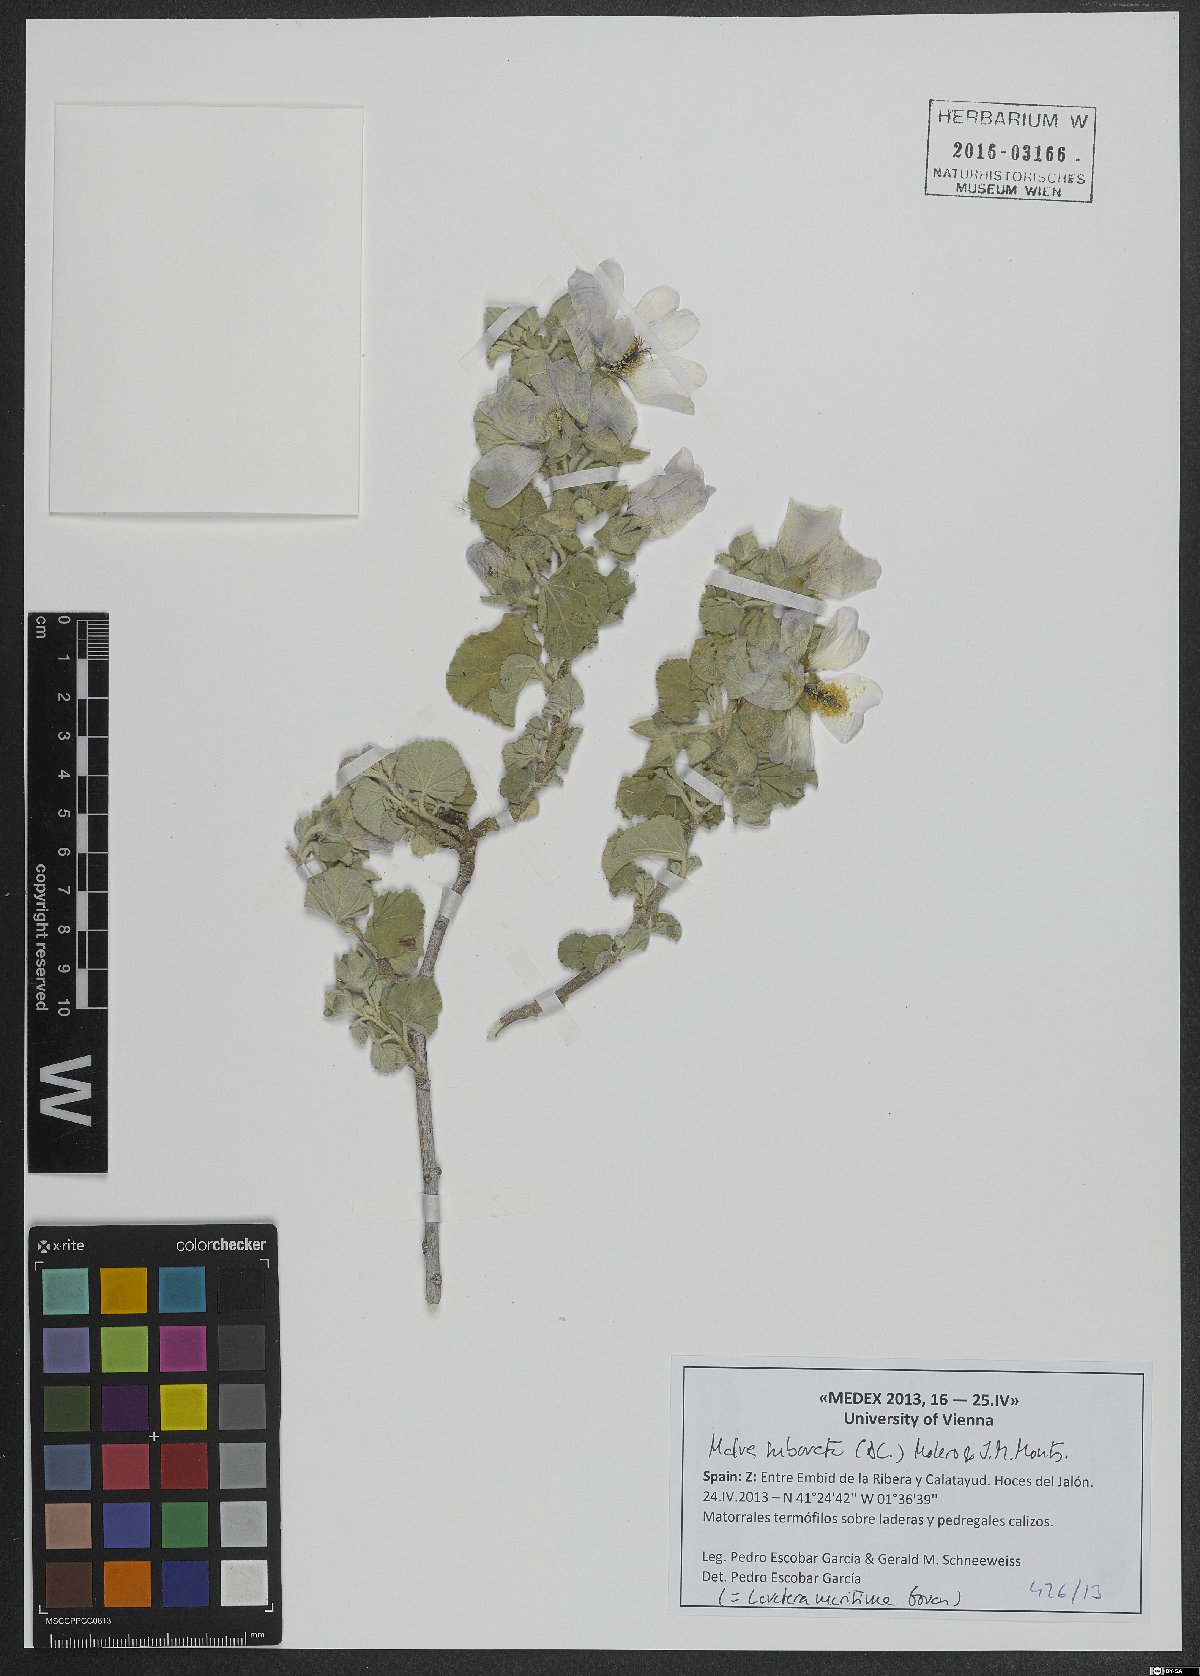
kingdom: Plantae
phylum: Tracheophyta
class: Magnoliopsida
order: Malvales
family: Malvaceae
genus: Malva
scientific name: Malva subovata
